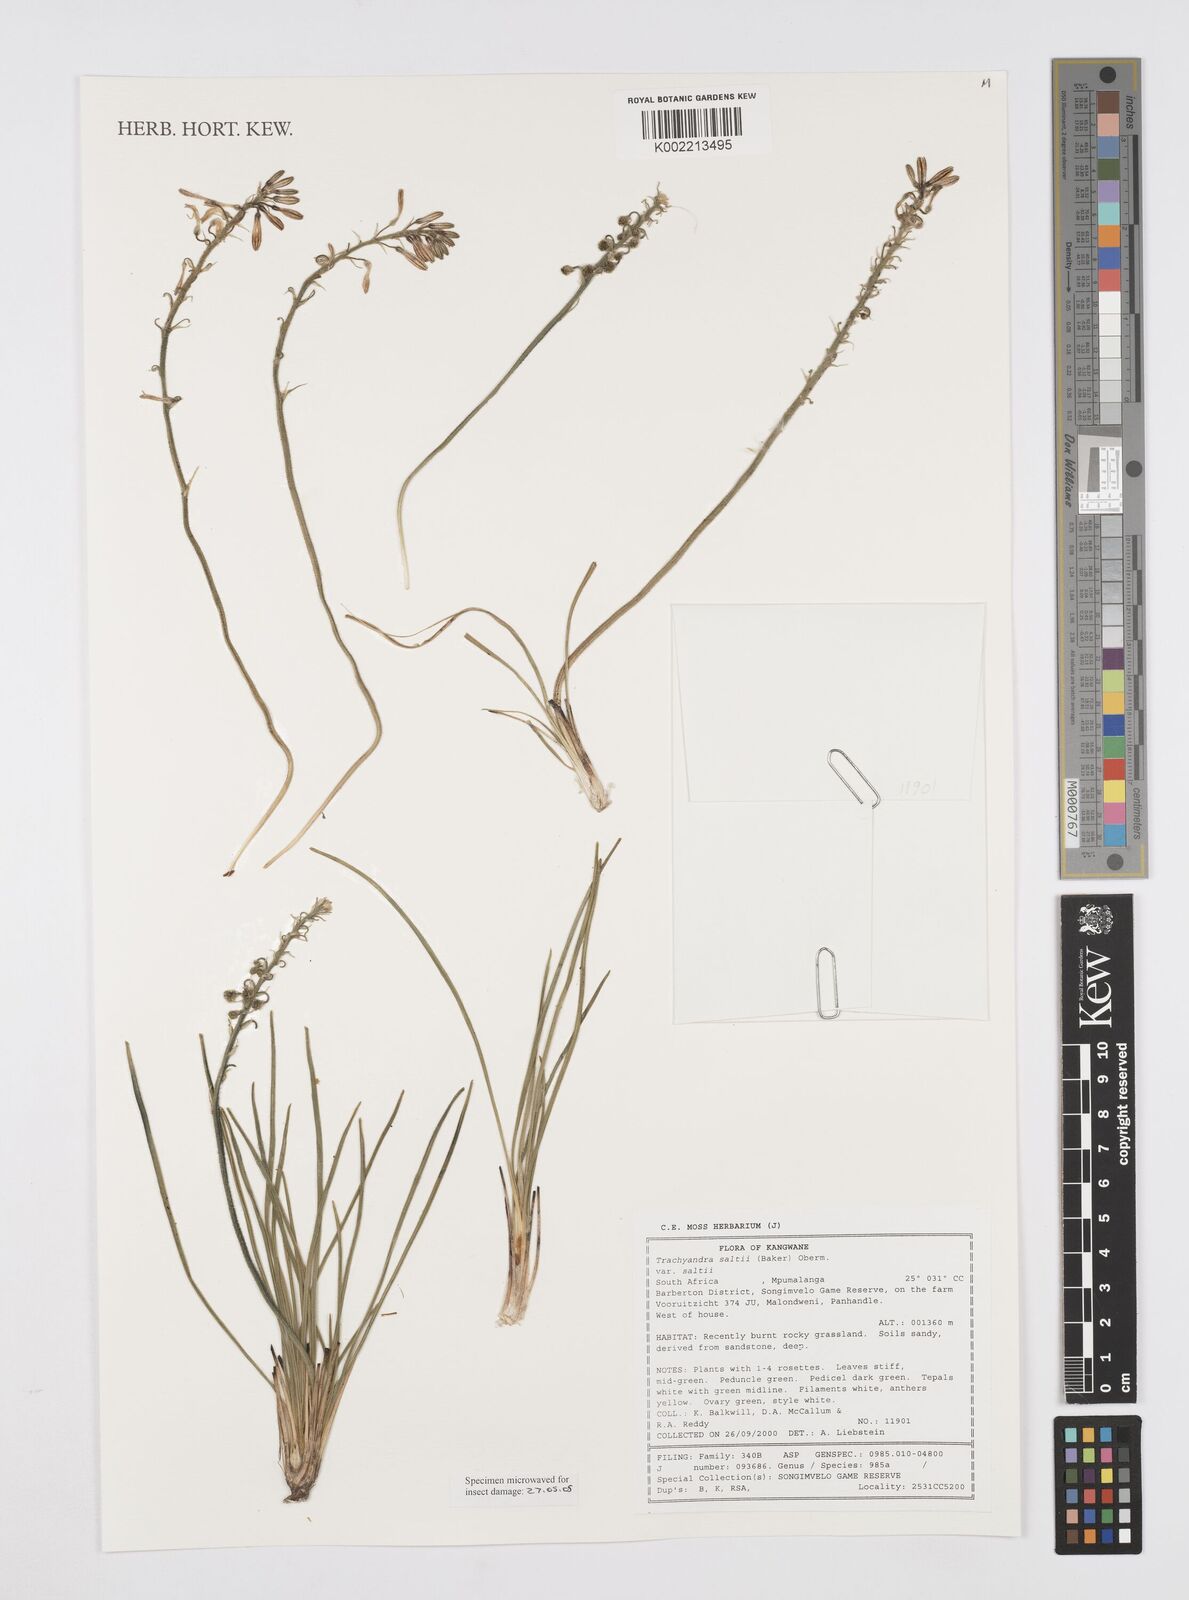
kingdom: Plantae
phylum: Tracheophyta
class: Liliopsida
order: Asparagales
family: Asphodelaceae
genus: Trachyandra
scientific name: Trachyandra saltii
